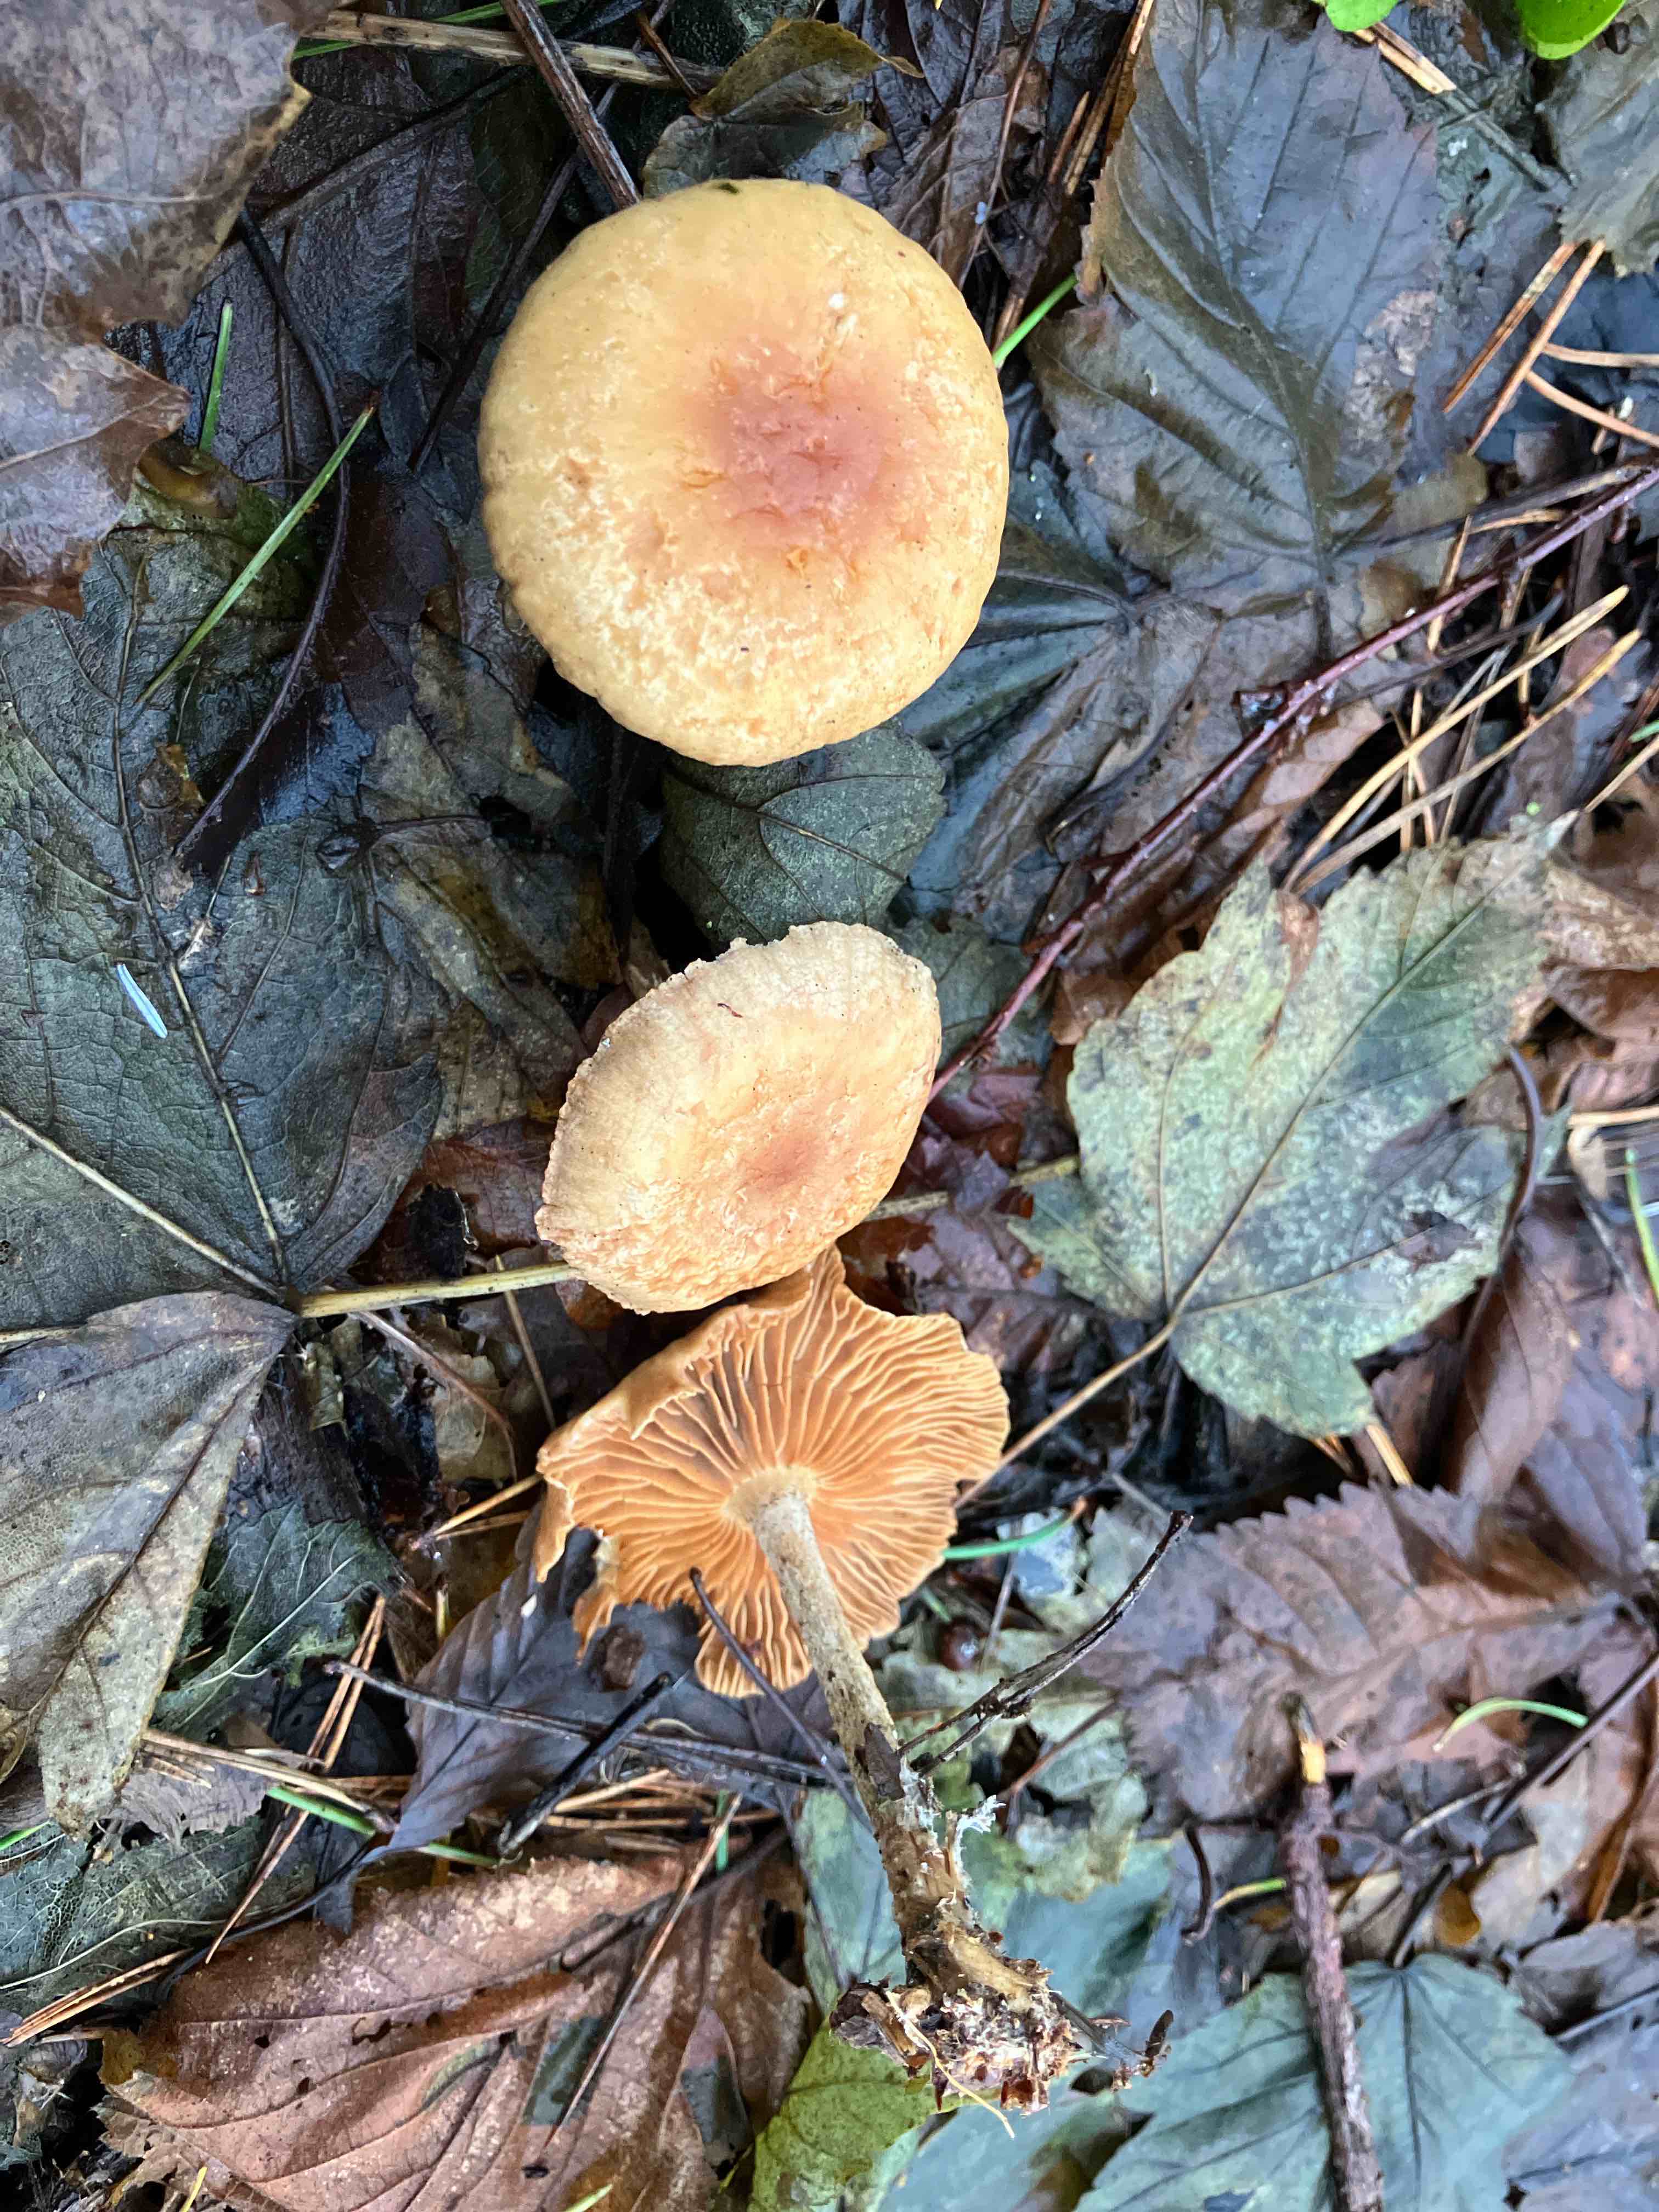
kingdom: Fungi
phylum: Basidiomycota
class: Agaricomycetes
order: Agaricales
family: Omphalotaceae
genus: Collybiopsis
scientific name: Collybiopsis peronata
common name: bestøvlet fladhat
